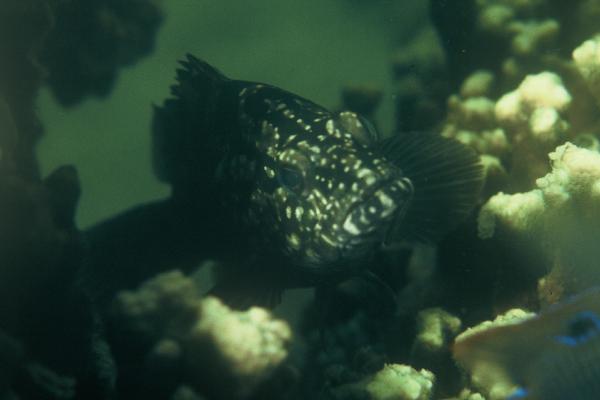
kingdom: Animalia
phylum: Chordata
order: Perciformes
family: Serranidae
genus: Epinephelus
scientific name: Epinephelus daemelii
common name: Saddletail grouper
